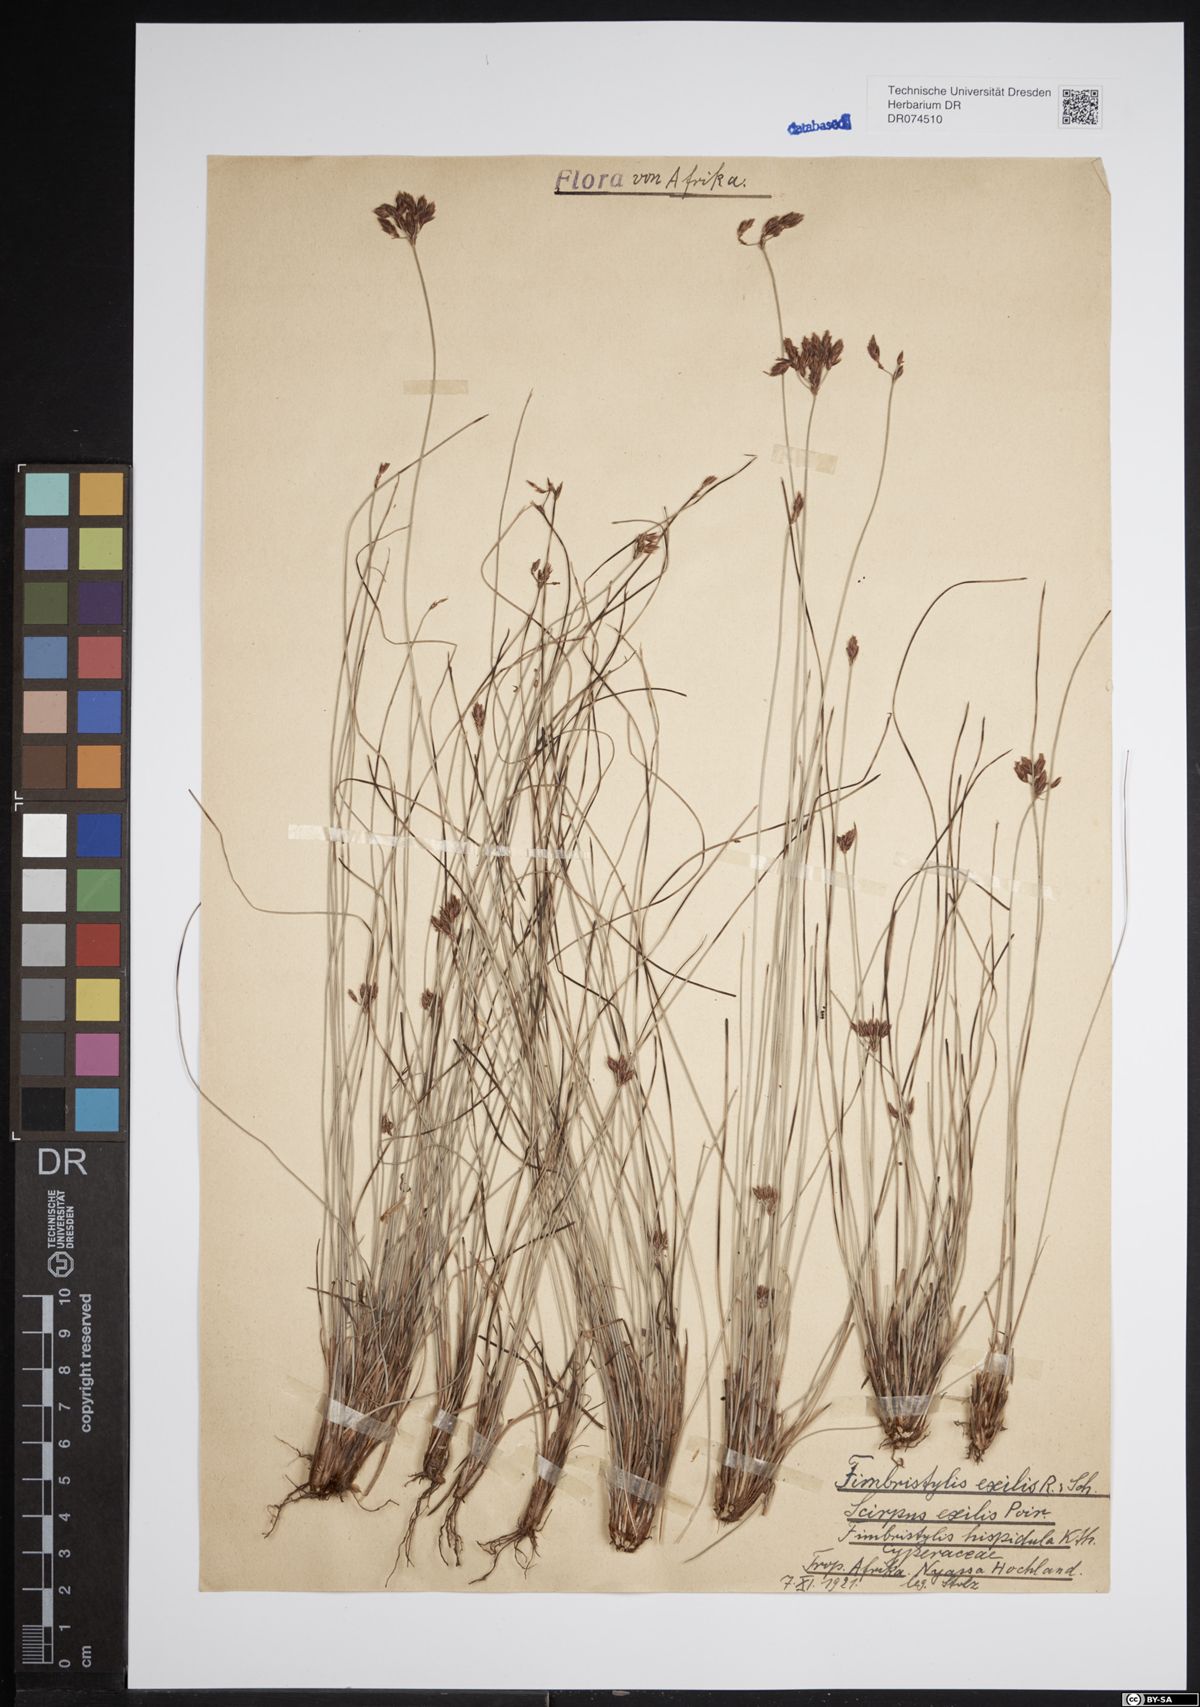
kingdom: Plantae
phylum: Tracheophyta
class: Liliopsida
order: Poales
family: Cyperaceae
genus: Bulbostylis
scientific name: Bulbostylis hispidula
